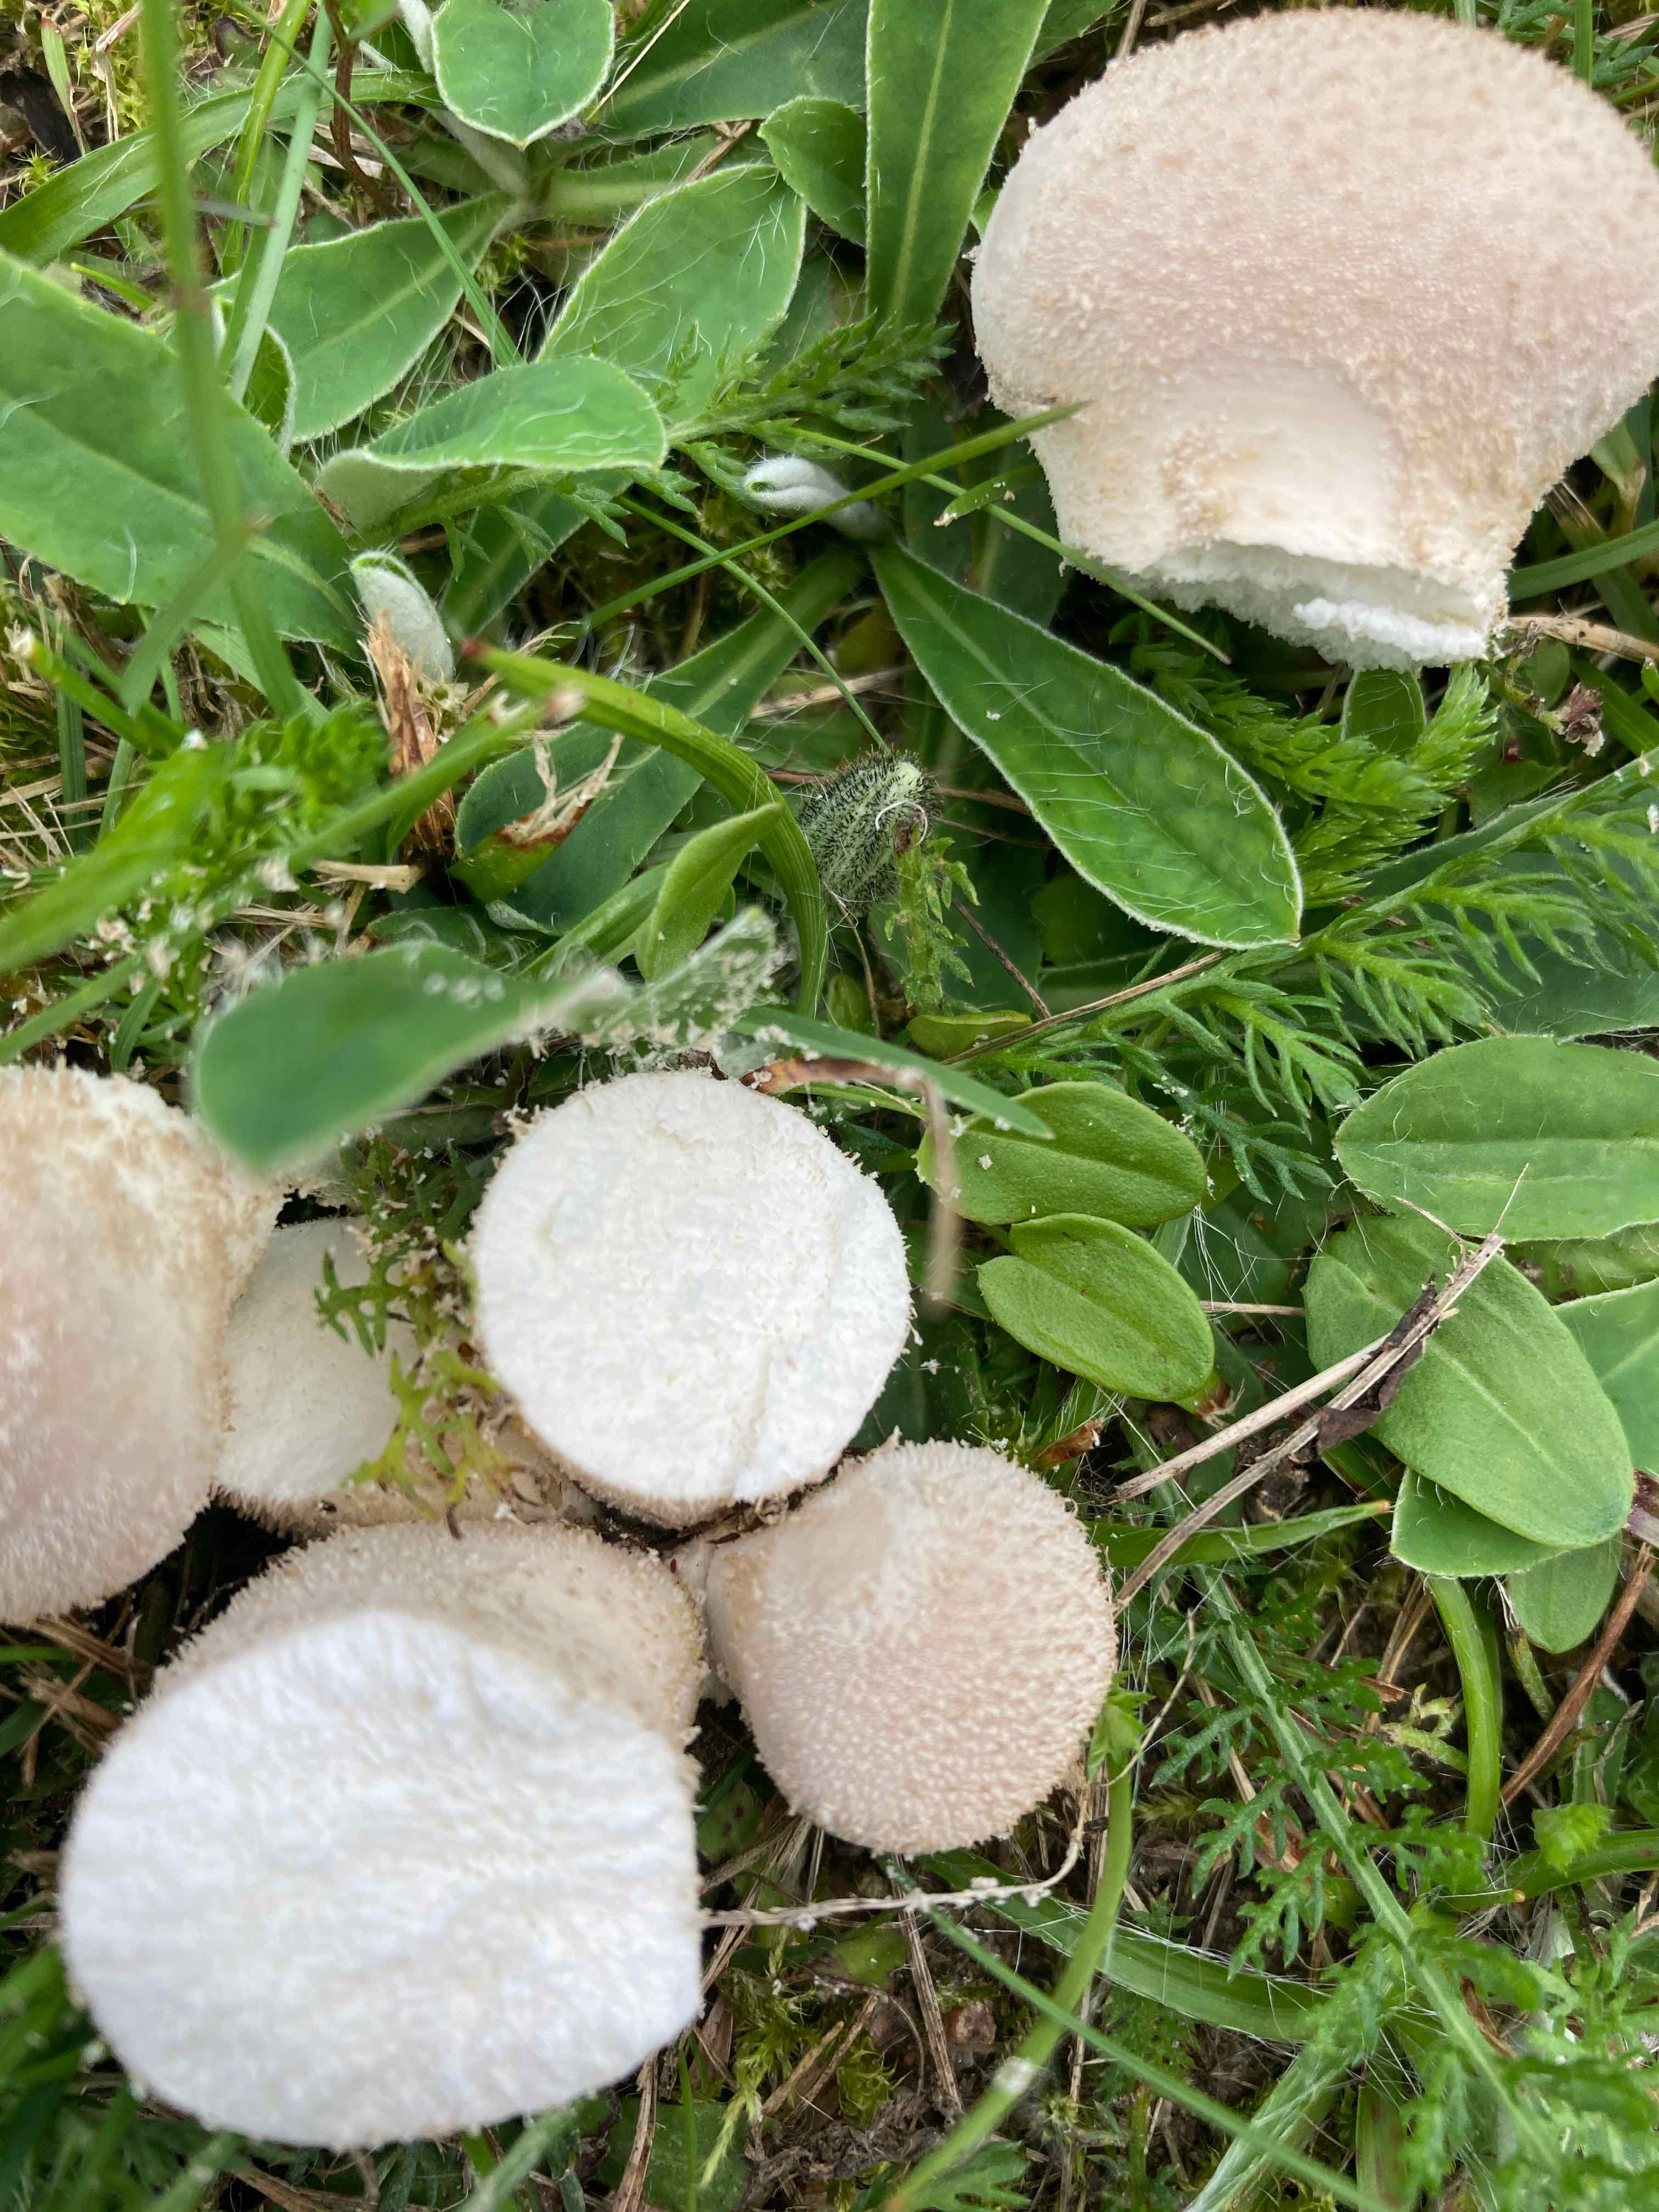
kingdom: Fungi
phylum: Basidiomycota
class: Agaricomycetes
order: Agaricales
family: Agaricaceae
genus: Lycoperdon
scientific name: Lycoperdon
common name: støvbold
